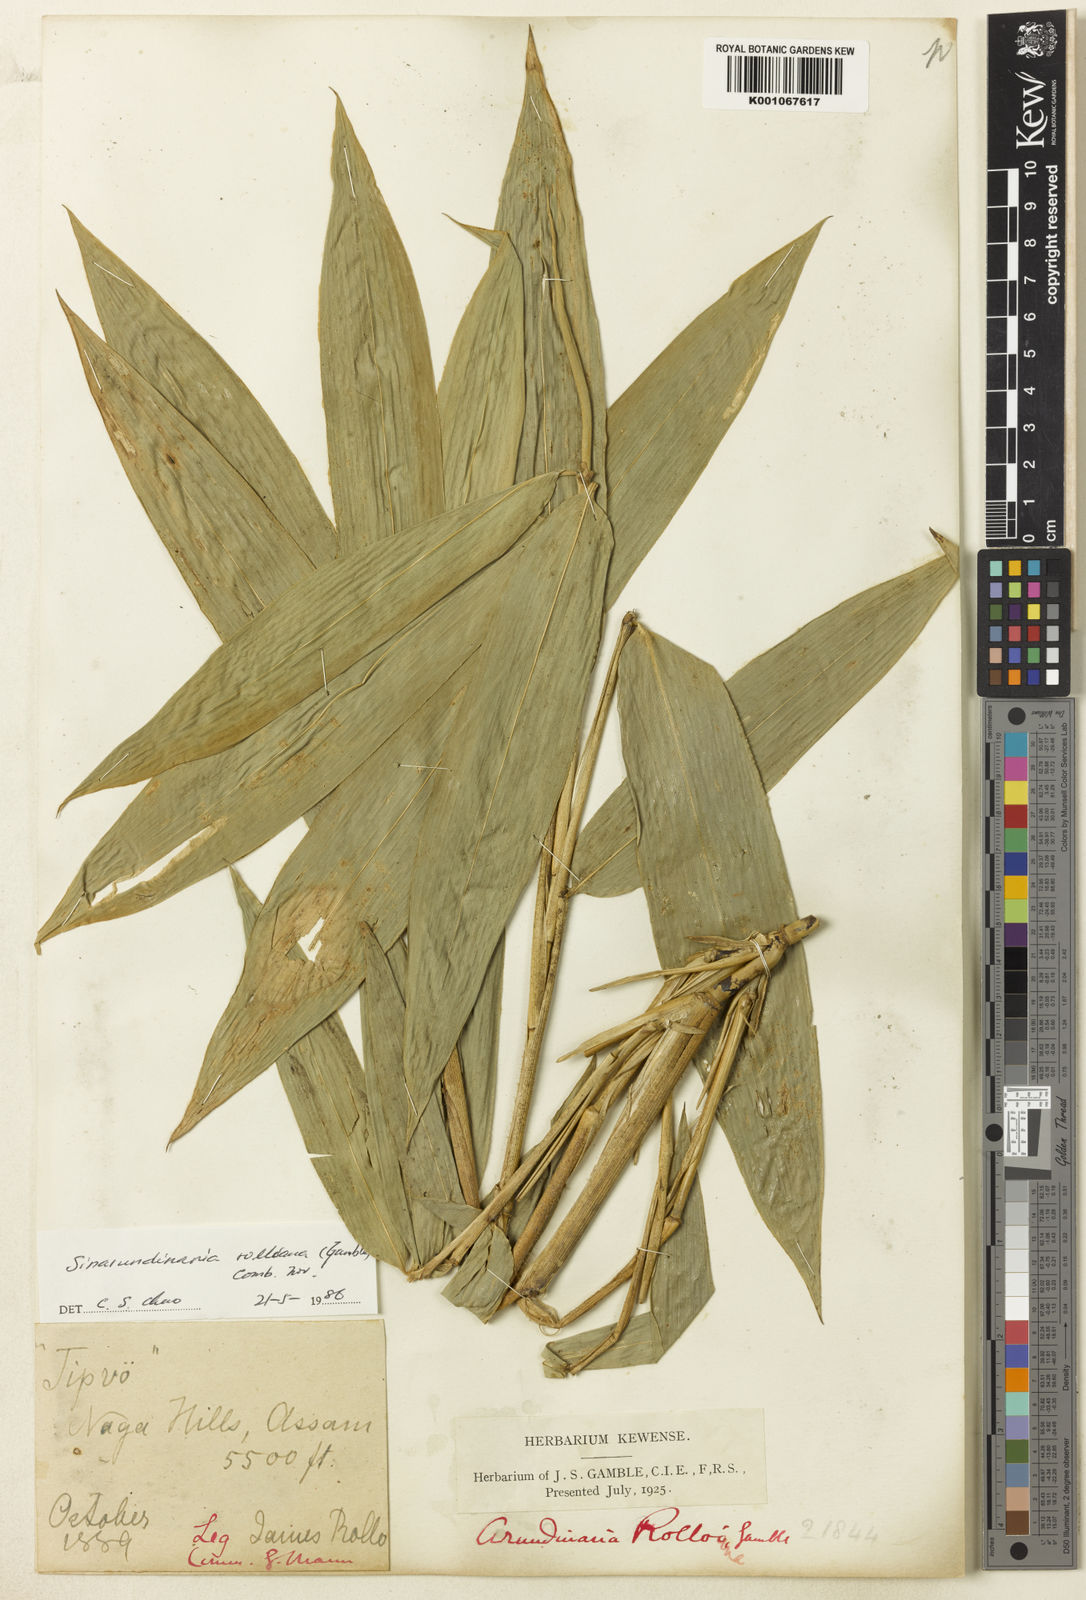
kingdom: Plantae
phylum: Tracheophyta
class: Liliopsida
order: Poales
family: Poaceae
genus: Yushania
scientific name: Yushania rolloana
